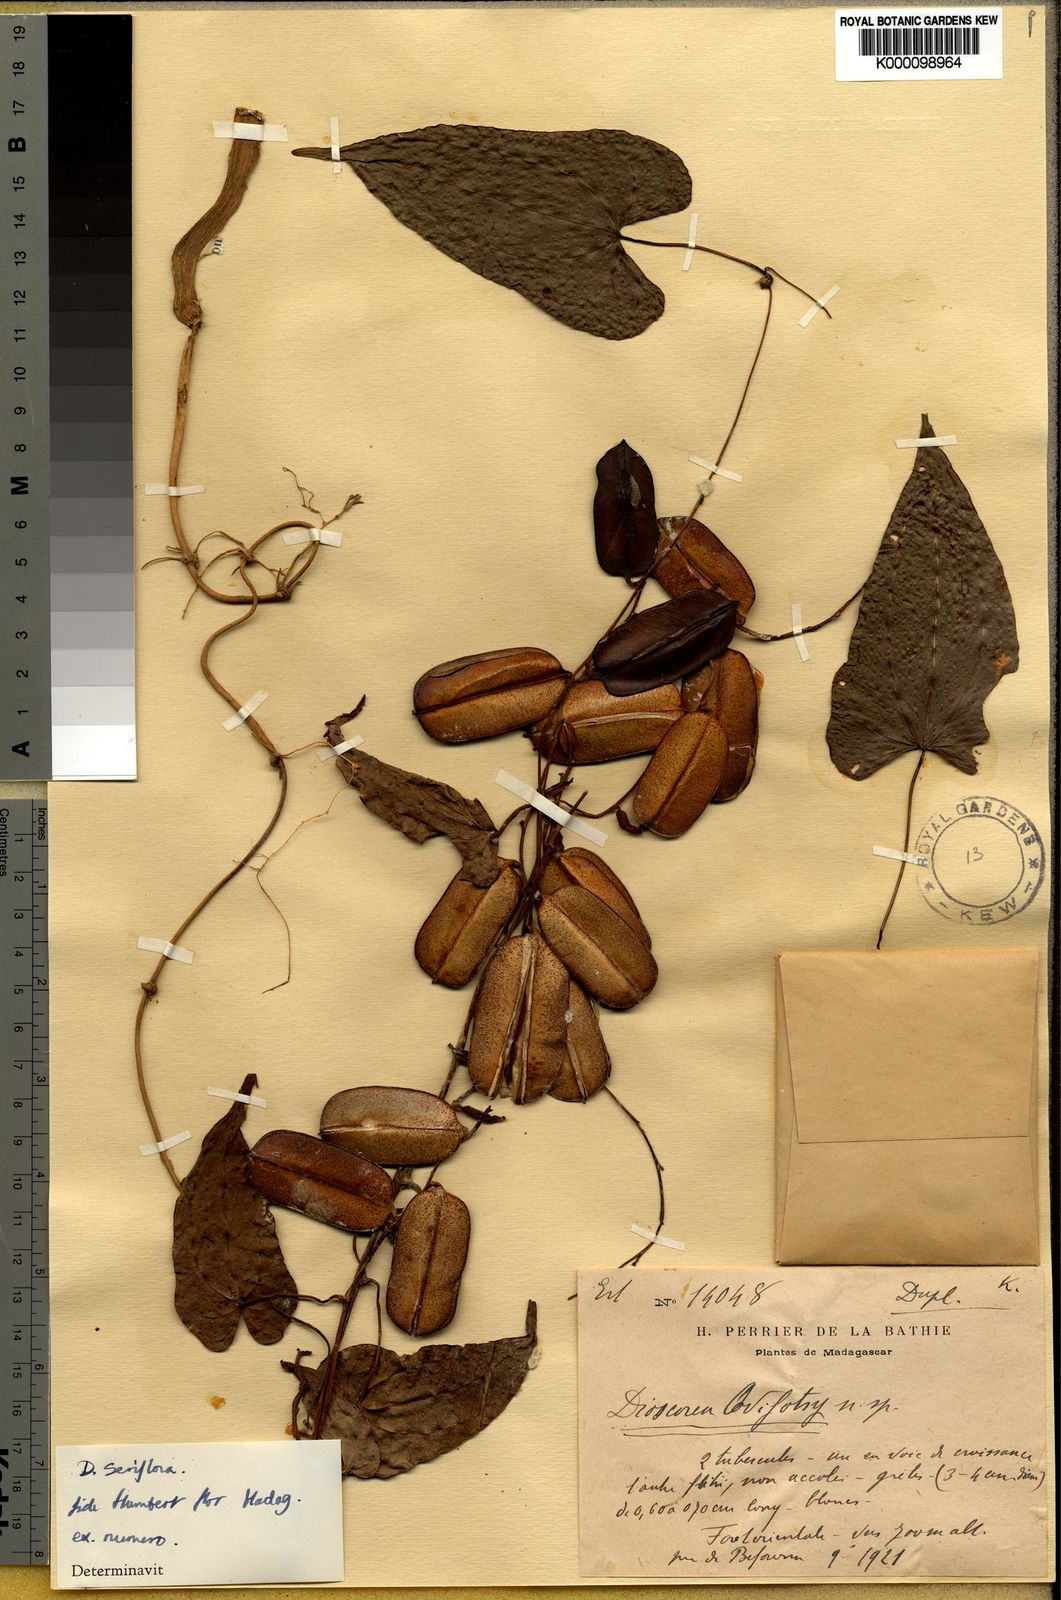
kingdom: Plantae
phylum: Tracheophyta
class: Liliopsida
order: Dioscoreales
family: Dioscoreaceae
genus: Dioscorea
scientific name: Dioscorea seriflora
